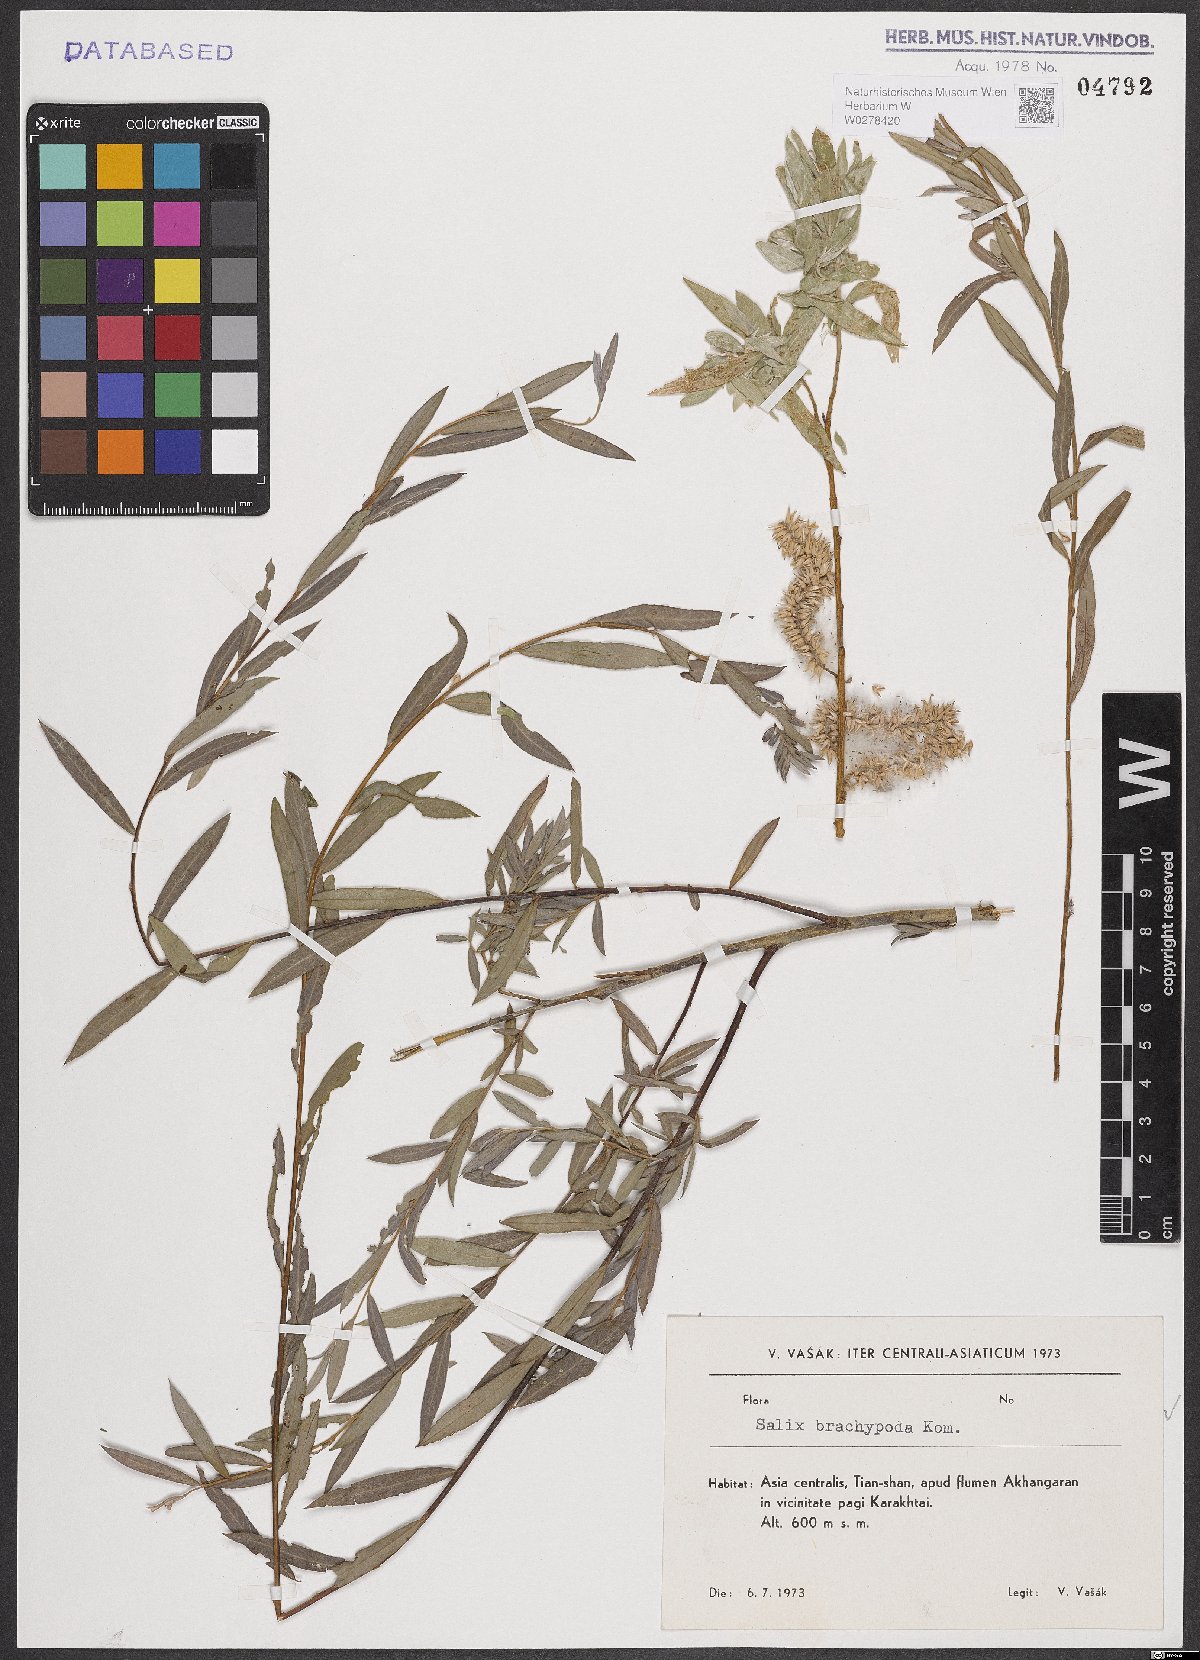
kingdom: Plantae
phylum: Tracheophyta
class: Magnoliopsida
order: Malpighiales
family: Salicaceae
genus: Salix
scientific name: Salix brachypoda
